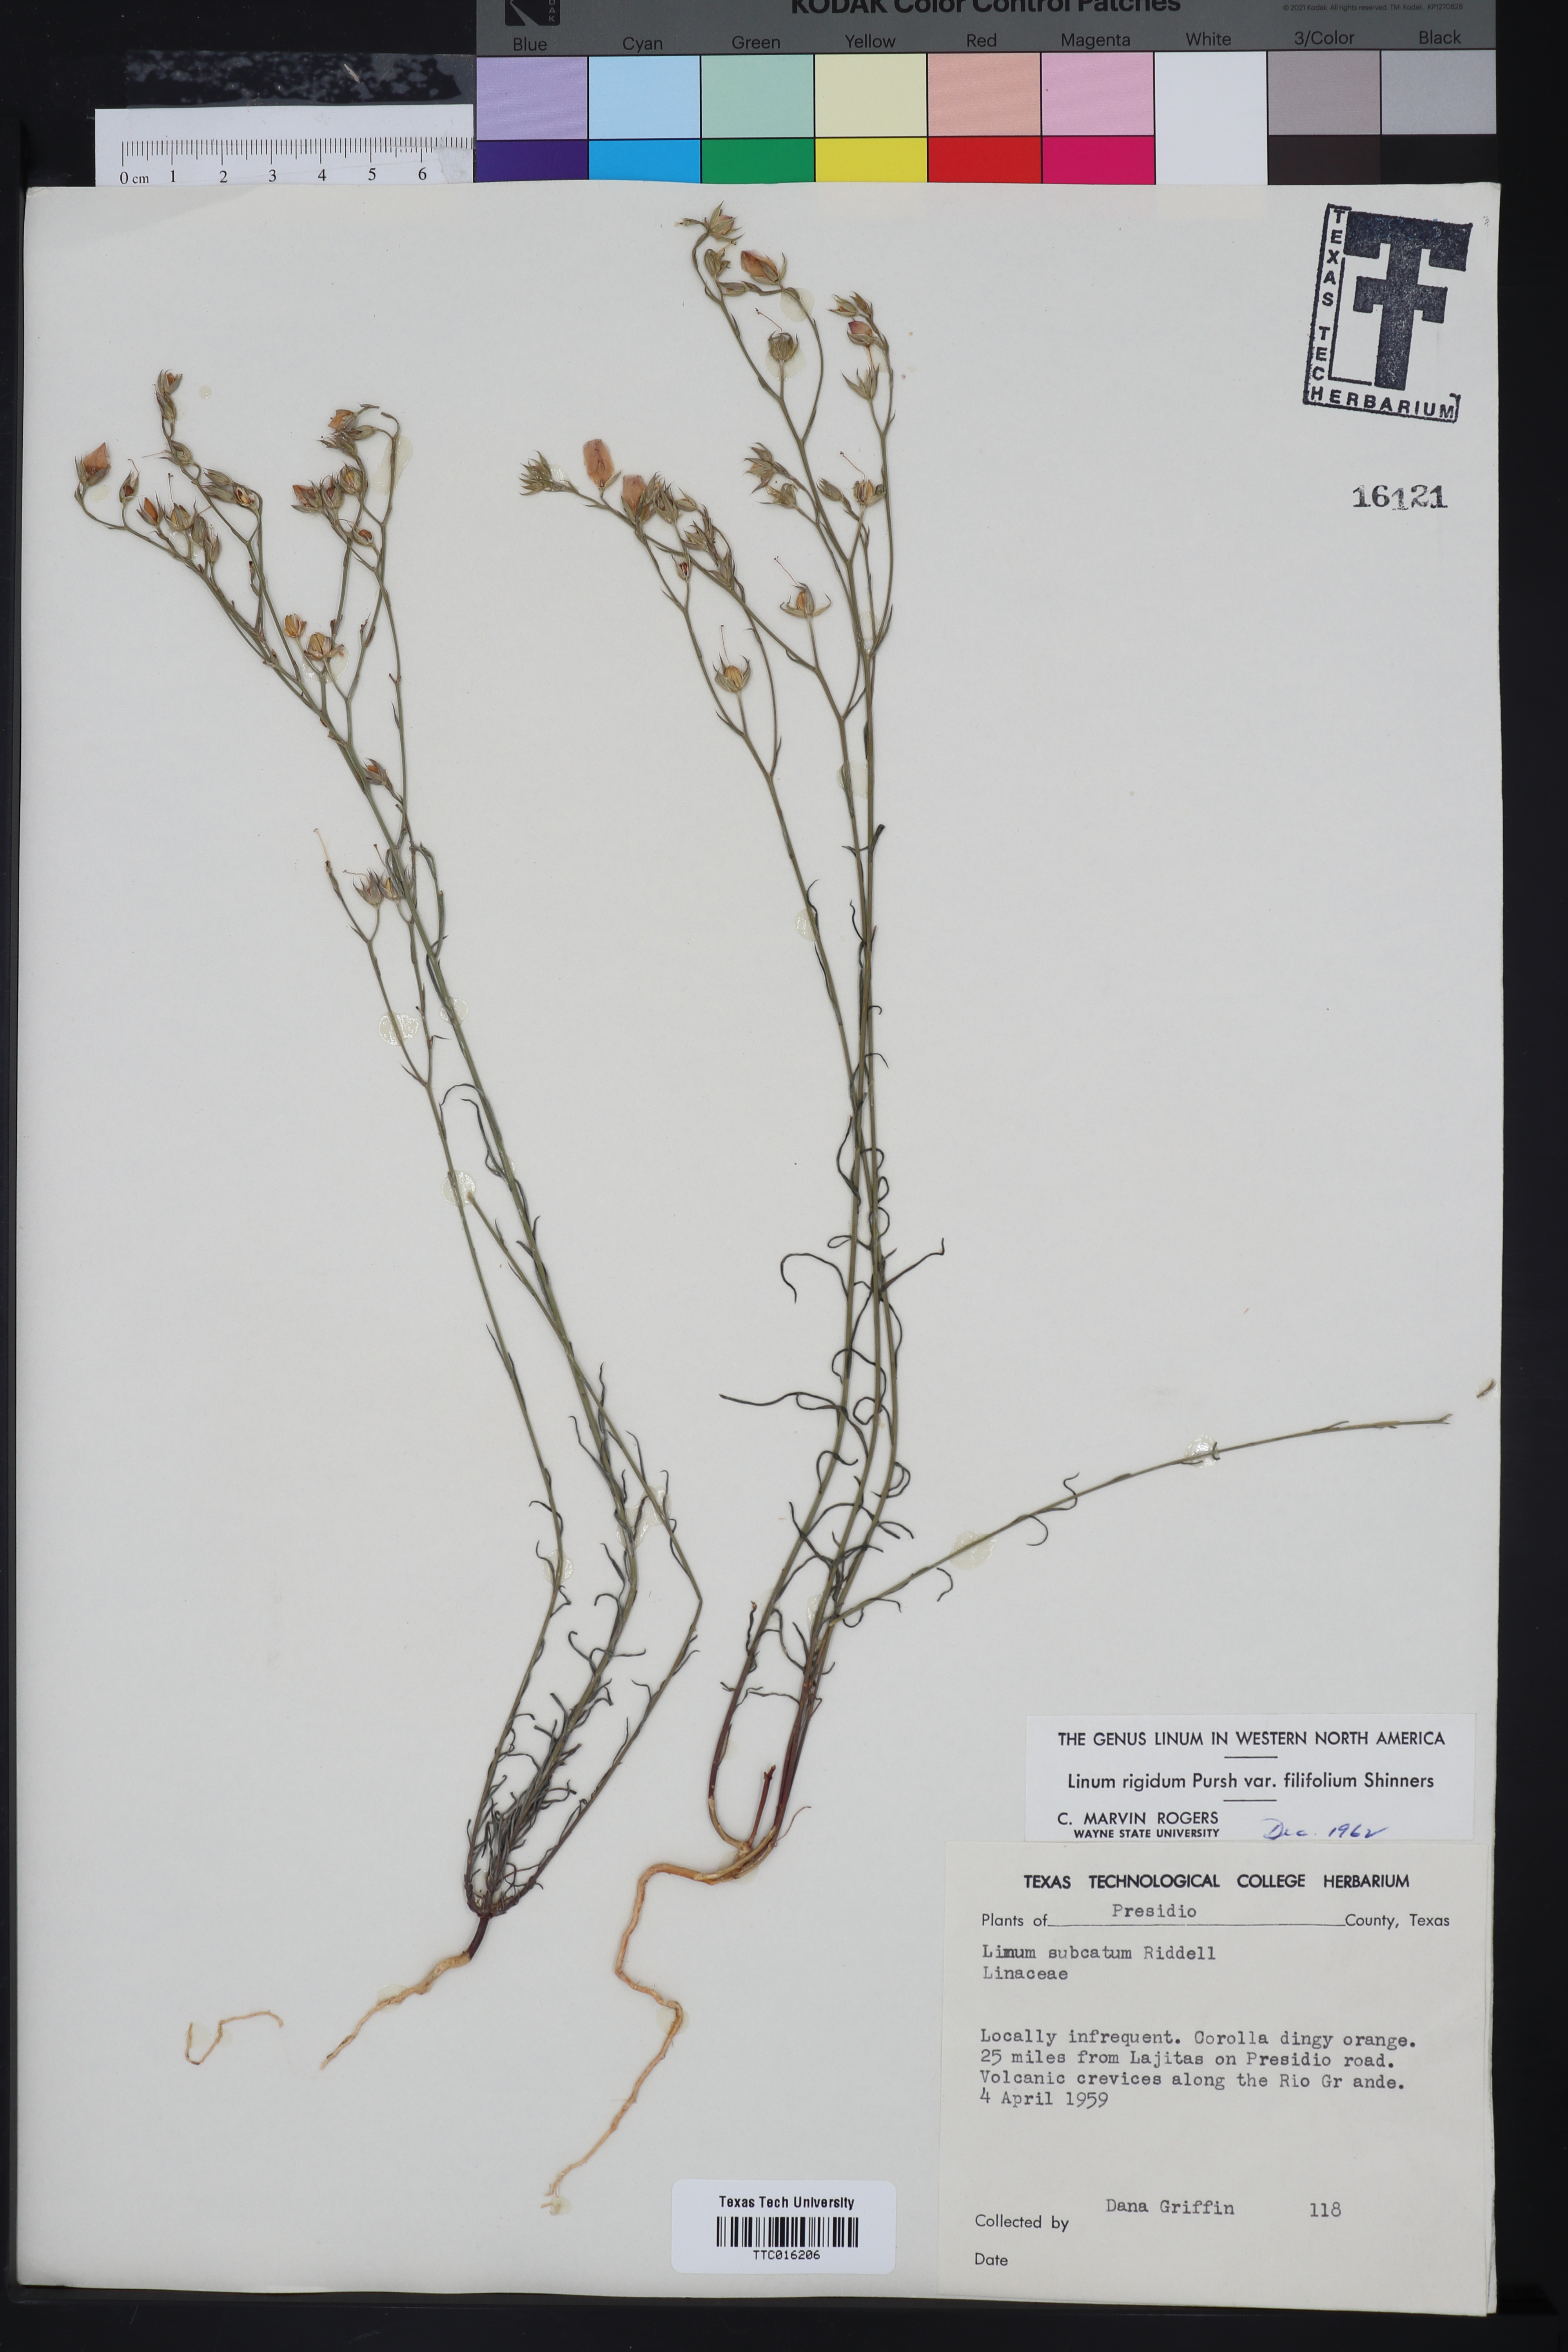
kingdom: Plantae
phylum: Tracheophyta
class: Magnoliopsida
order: Malpighiales
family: Linaceae
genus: Linum
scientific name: Linum berlandieri
